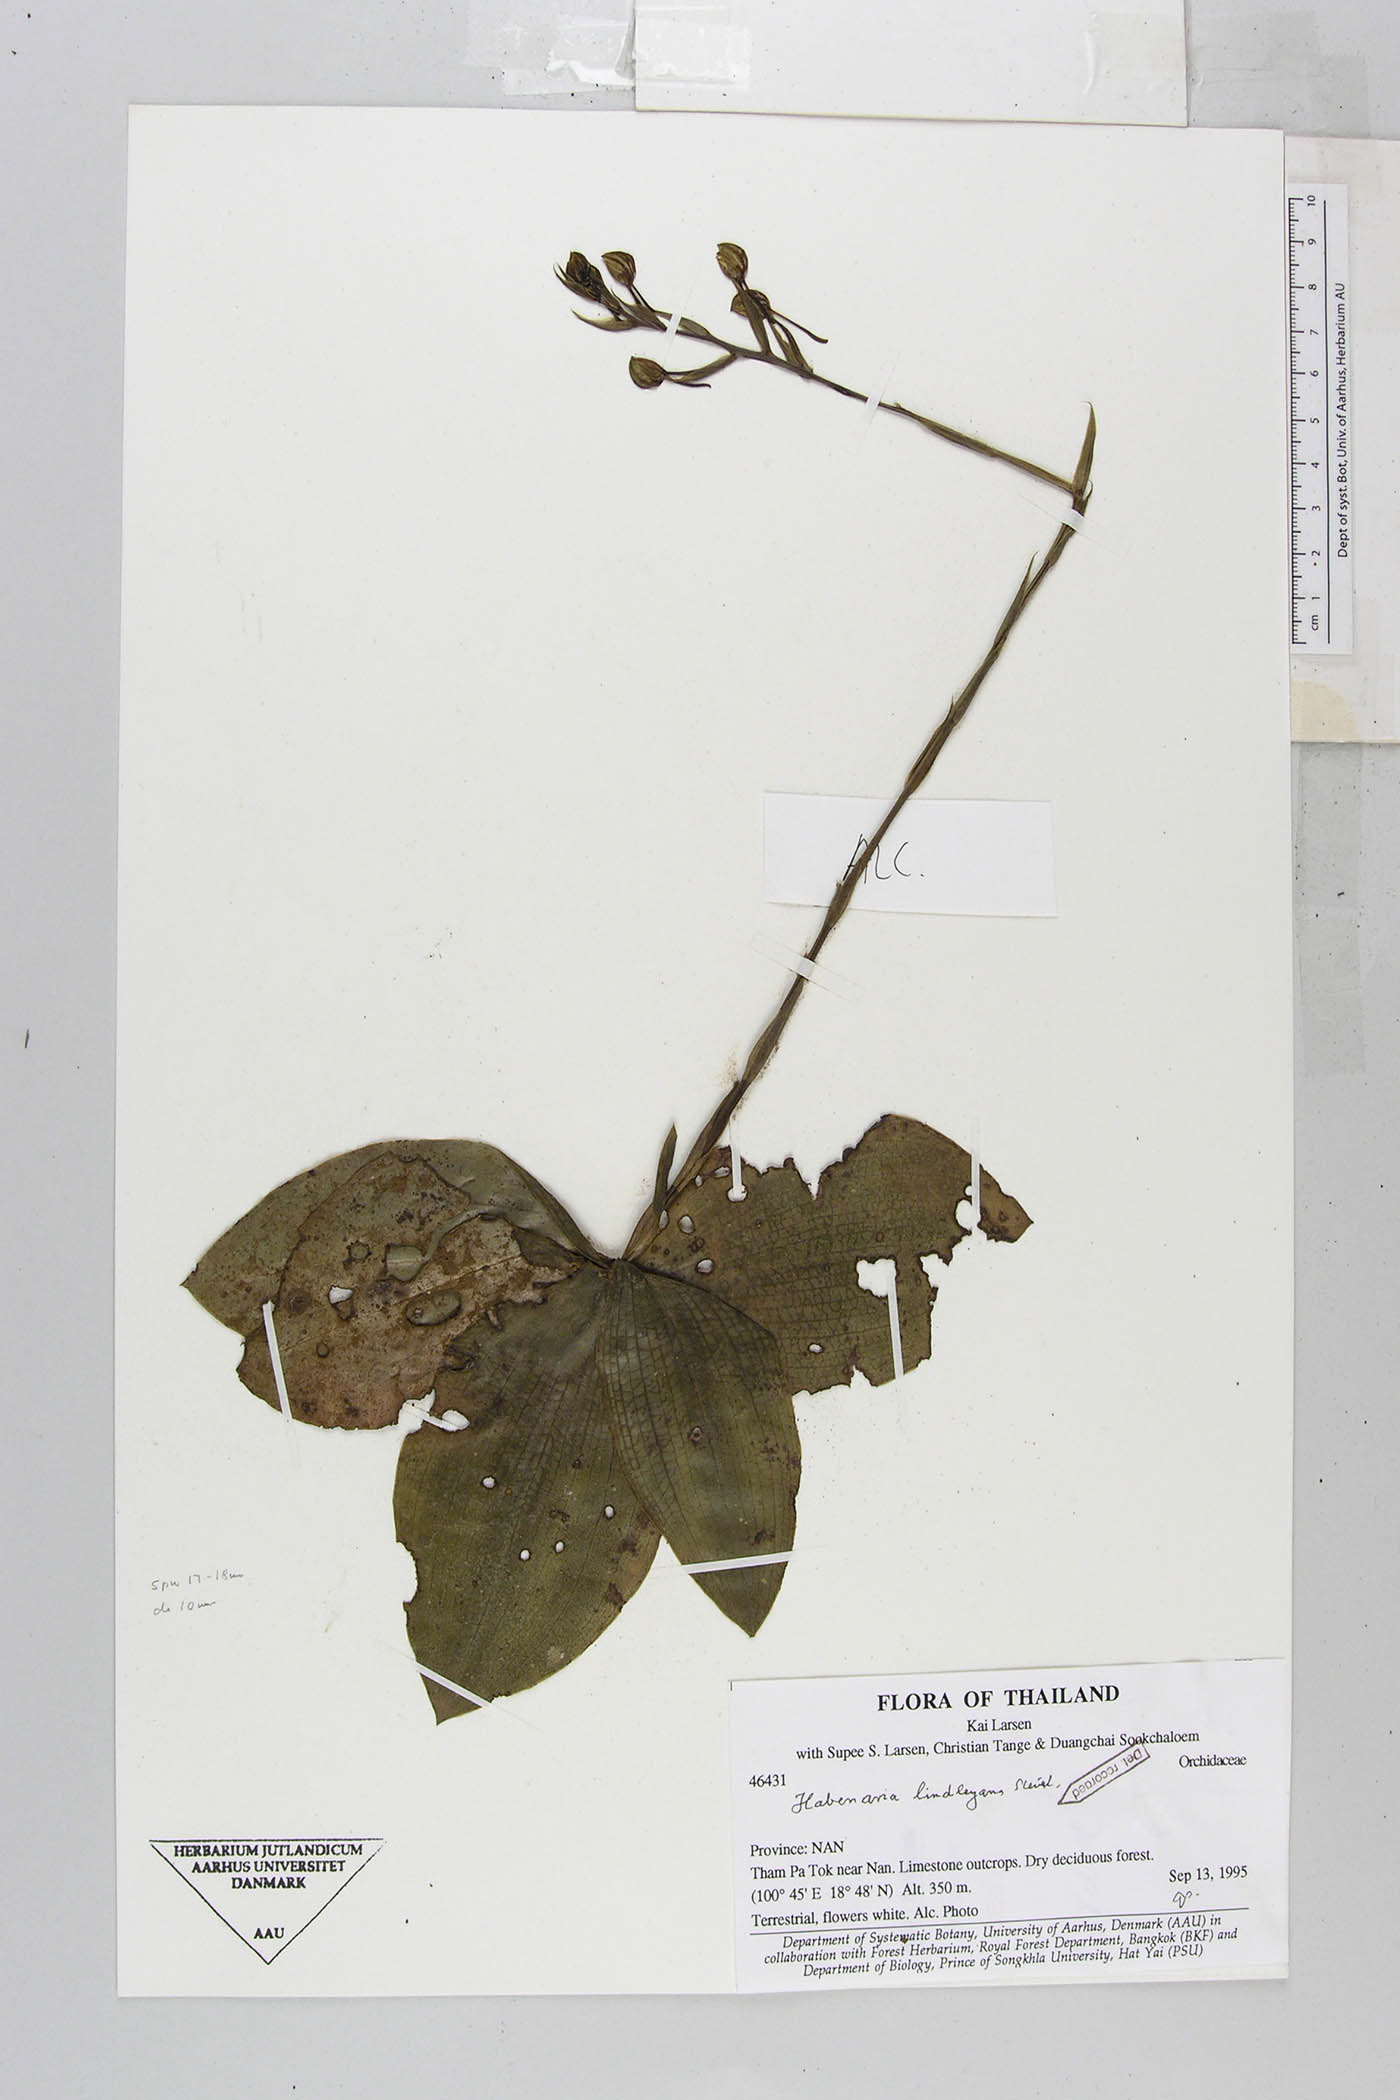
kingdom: Plantae
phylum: Tracheophyta
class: Liliopsida
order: Asparagales
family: Orchidaceae
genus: Habenaria
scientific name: Habenaria lindleyana
